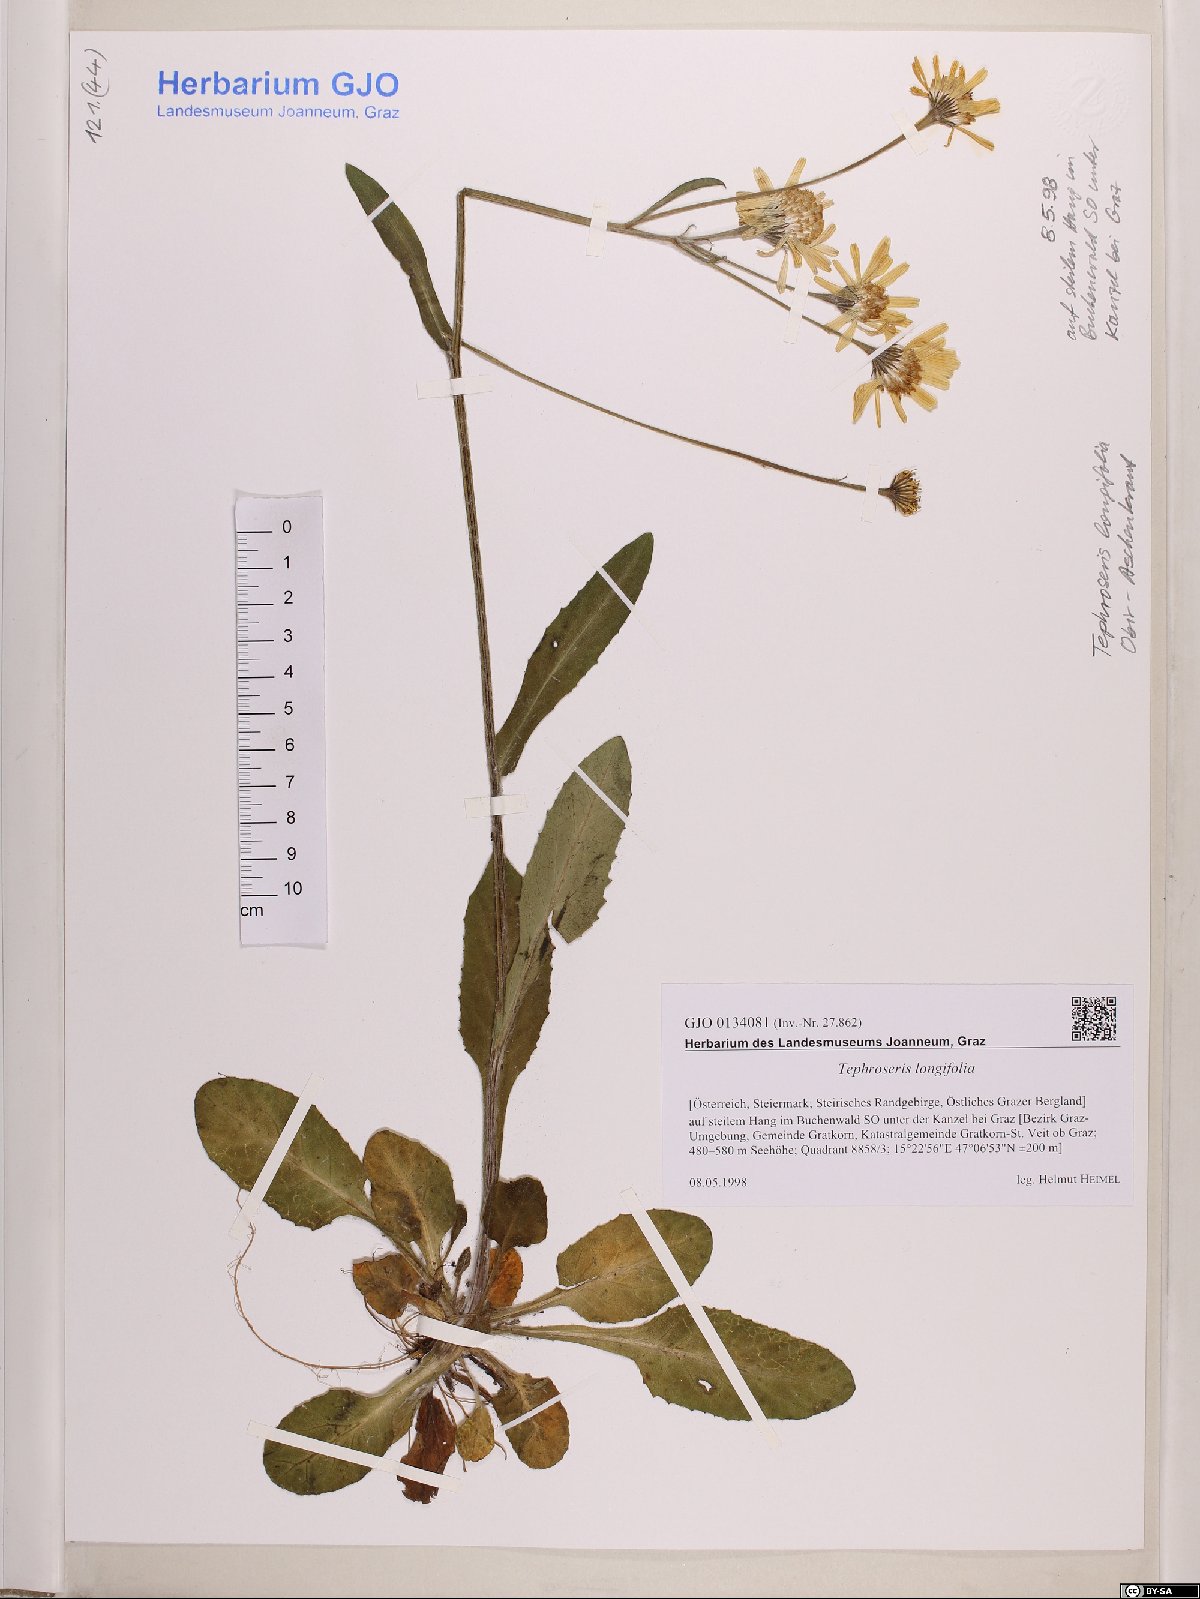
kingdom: Plantae
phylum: Tracheophyta
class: Magnoliopsida
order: Asterales
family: Asteraceae
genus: Tephroseris
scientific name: Tephroseris longifolia
